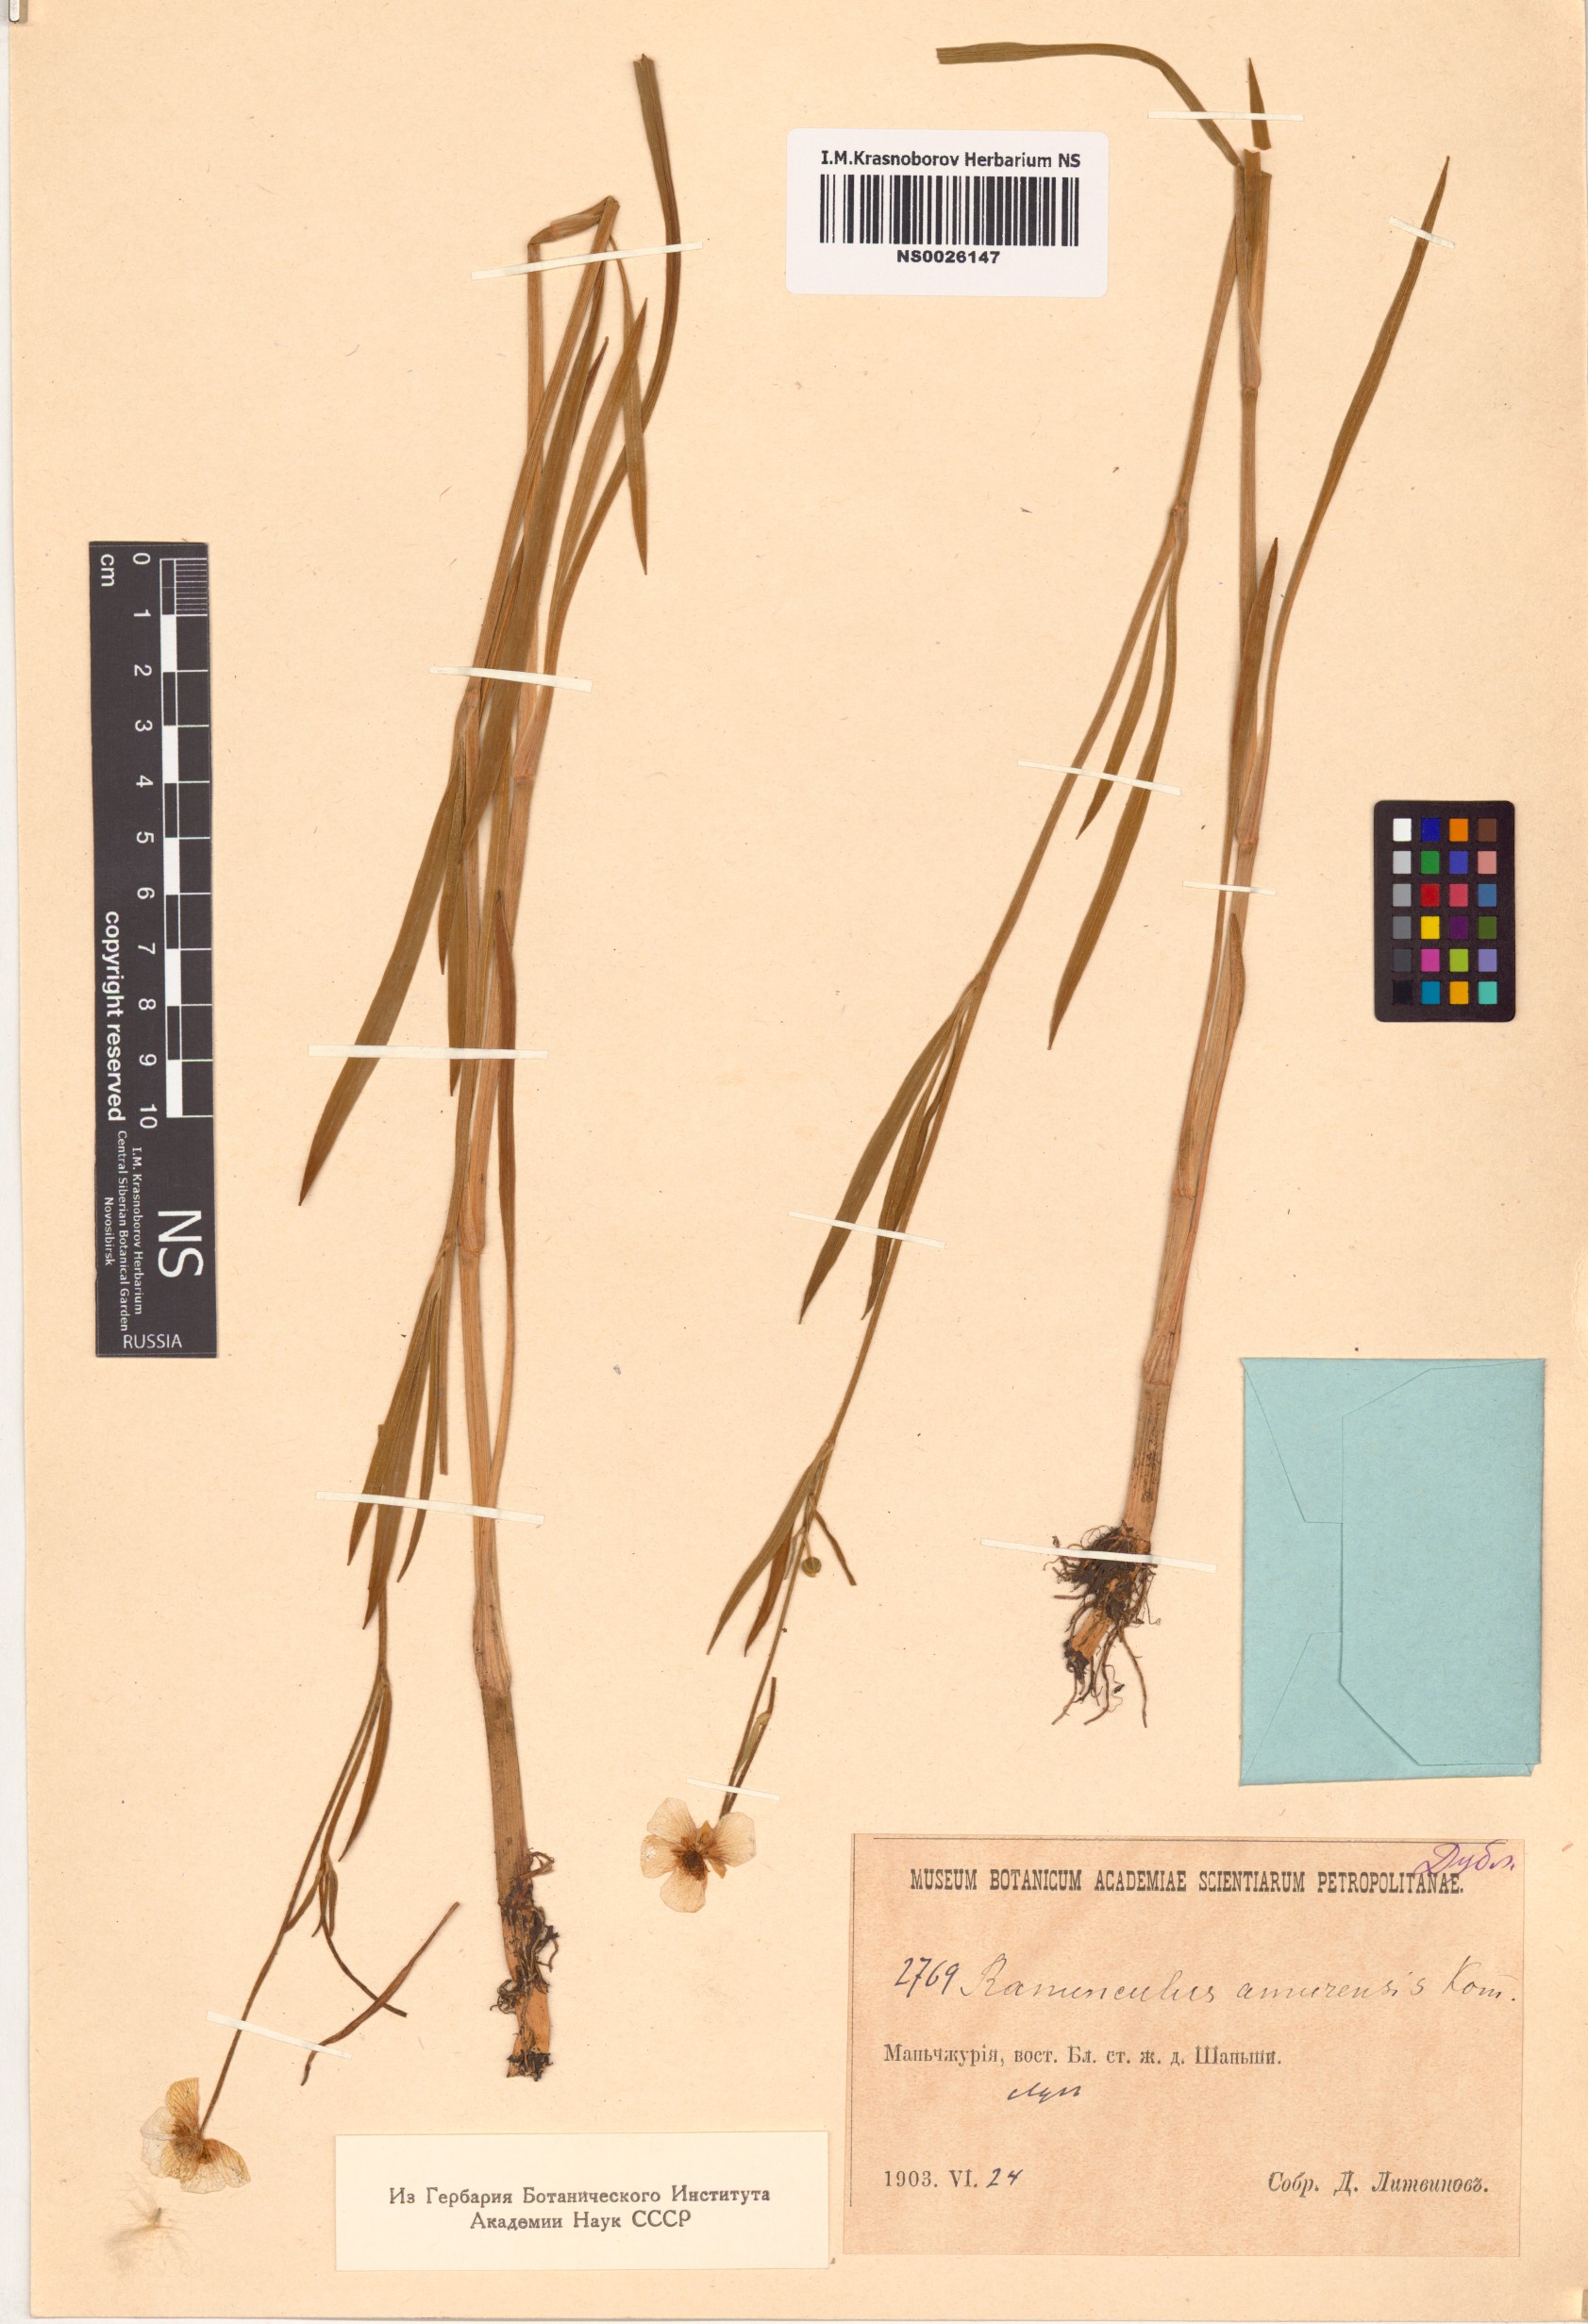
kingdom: Plantae
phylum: Tracheophyta
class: Magnoliopsida
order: Ranunculales
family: Ranunculaceae
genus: Ranunculus
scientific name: Ranunculus amurensis
